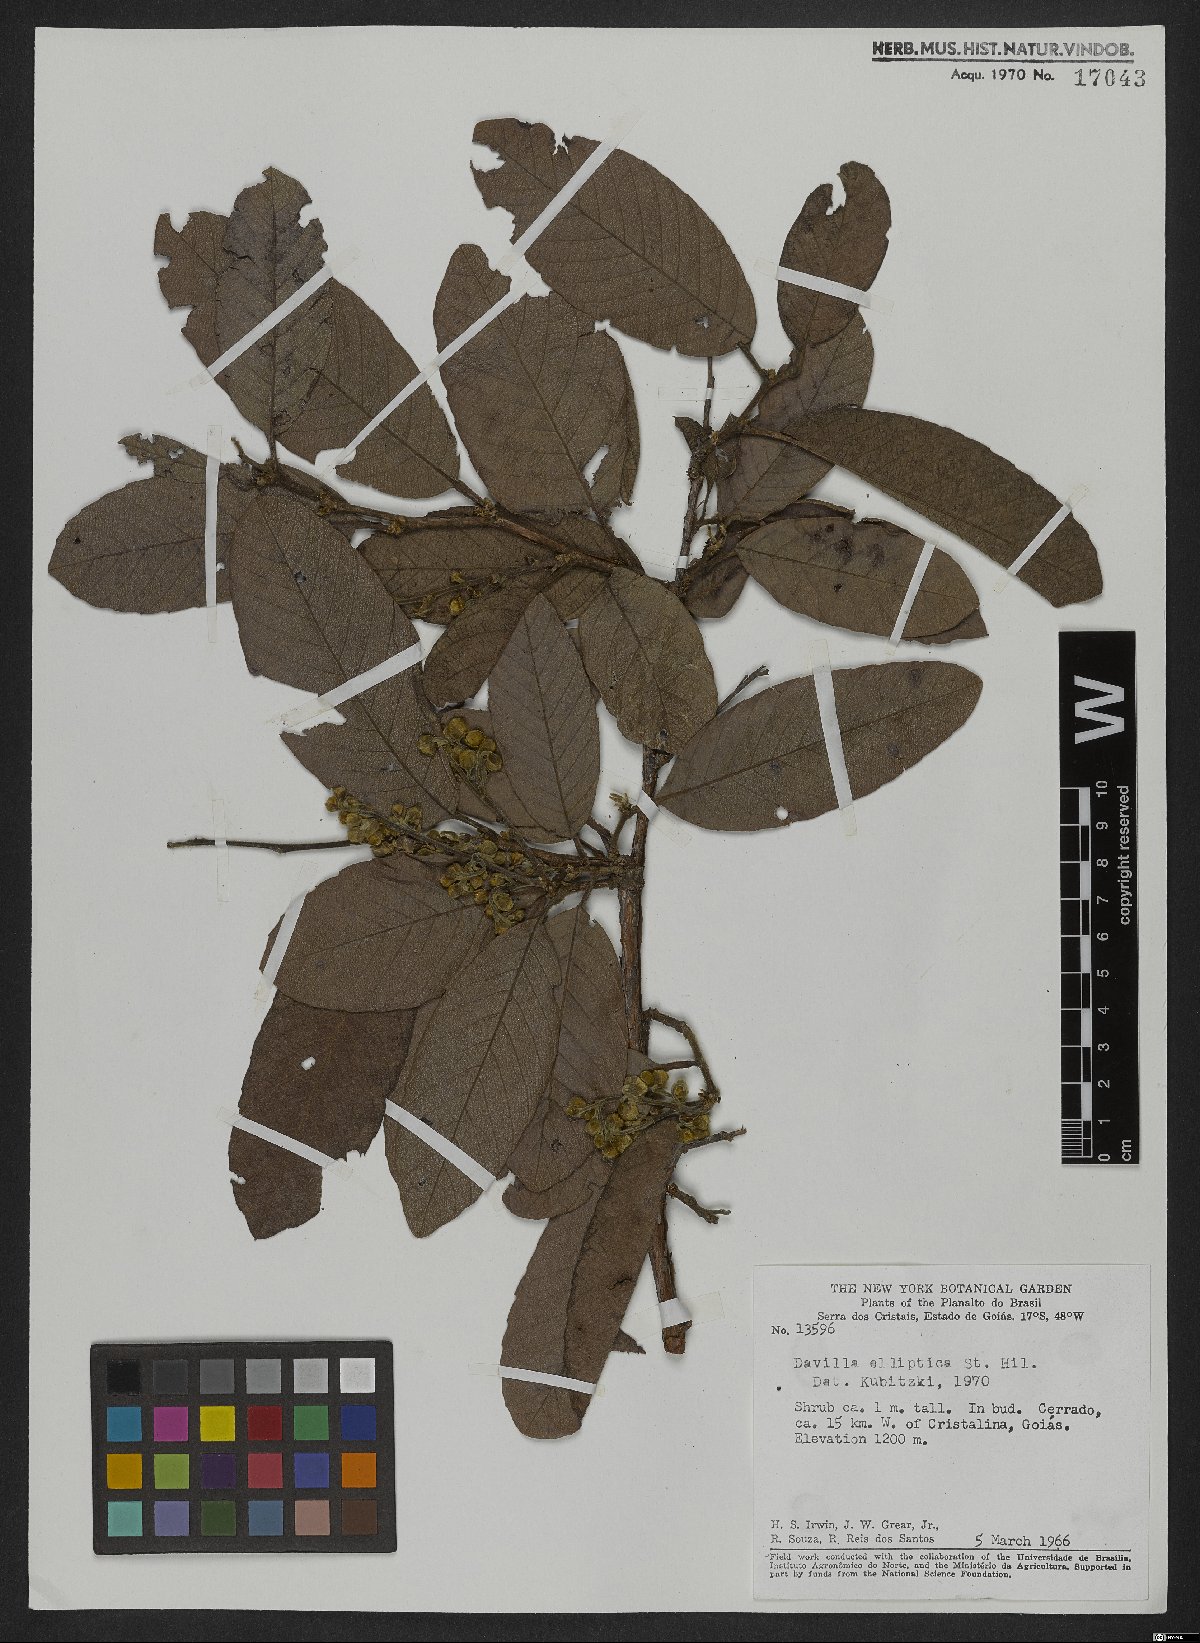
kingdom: Plantae
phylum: Tracheophyta
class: Magnoliopsida
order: Dilleniales
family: Dilleniaceae
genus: Davilla
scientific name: Davilla elliptica
